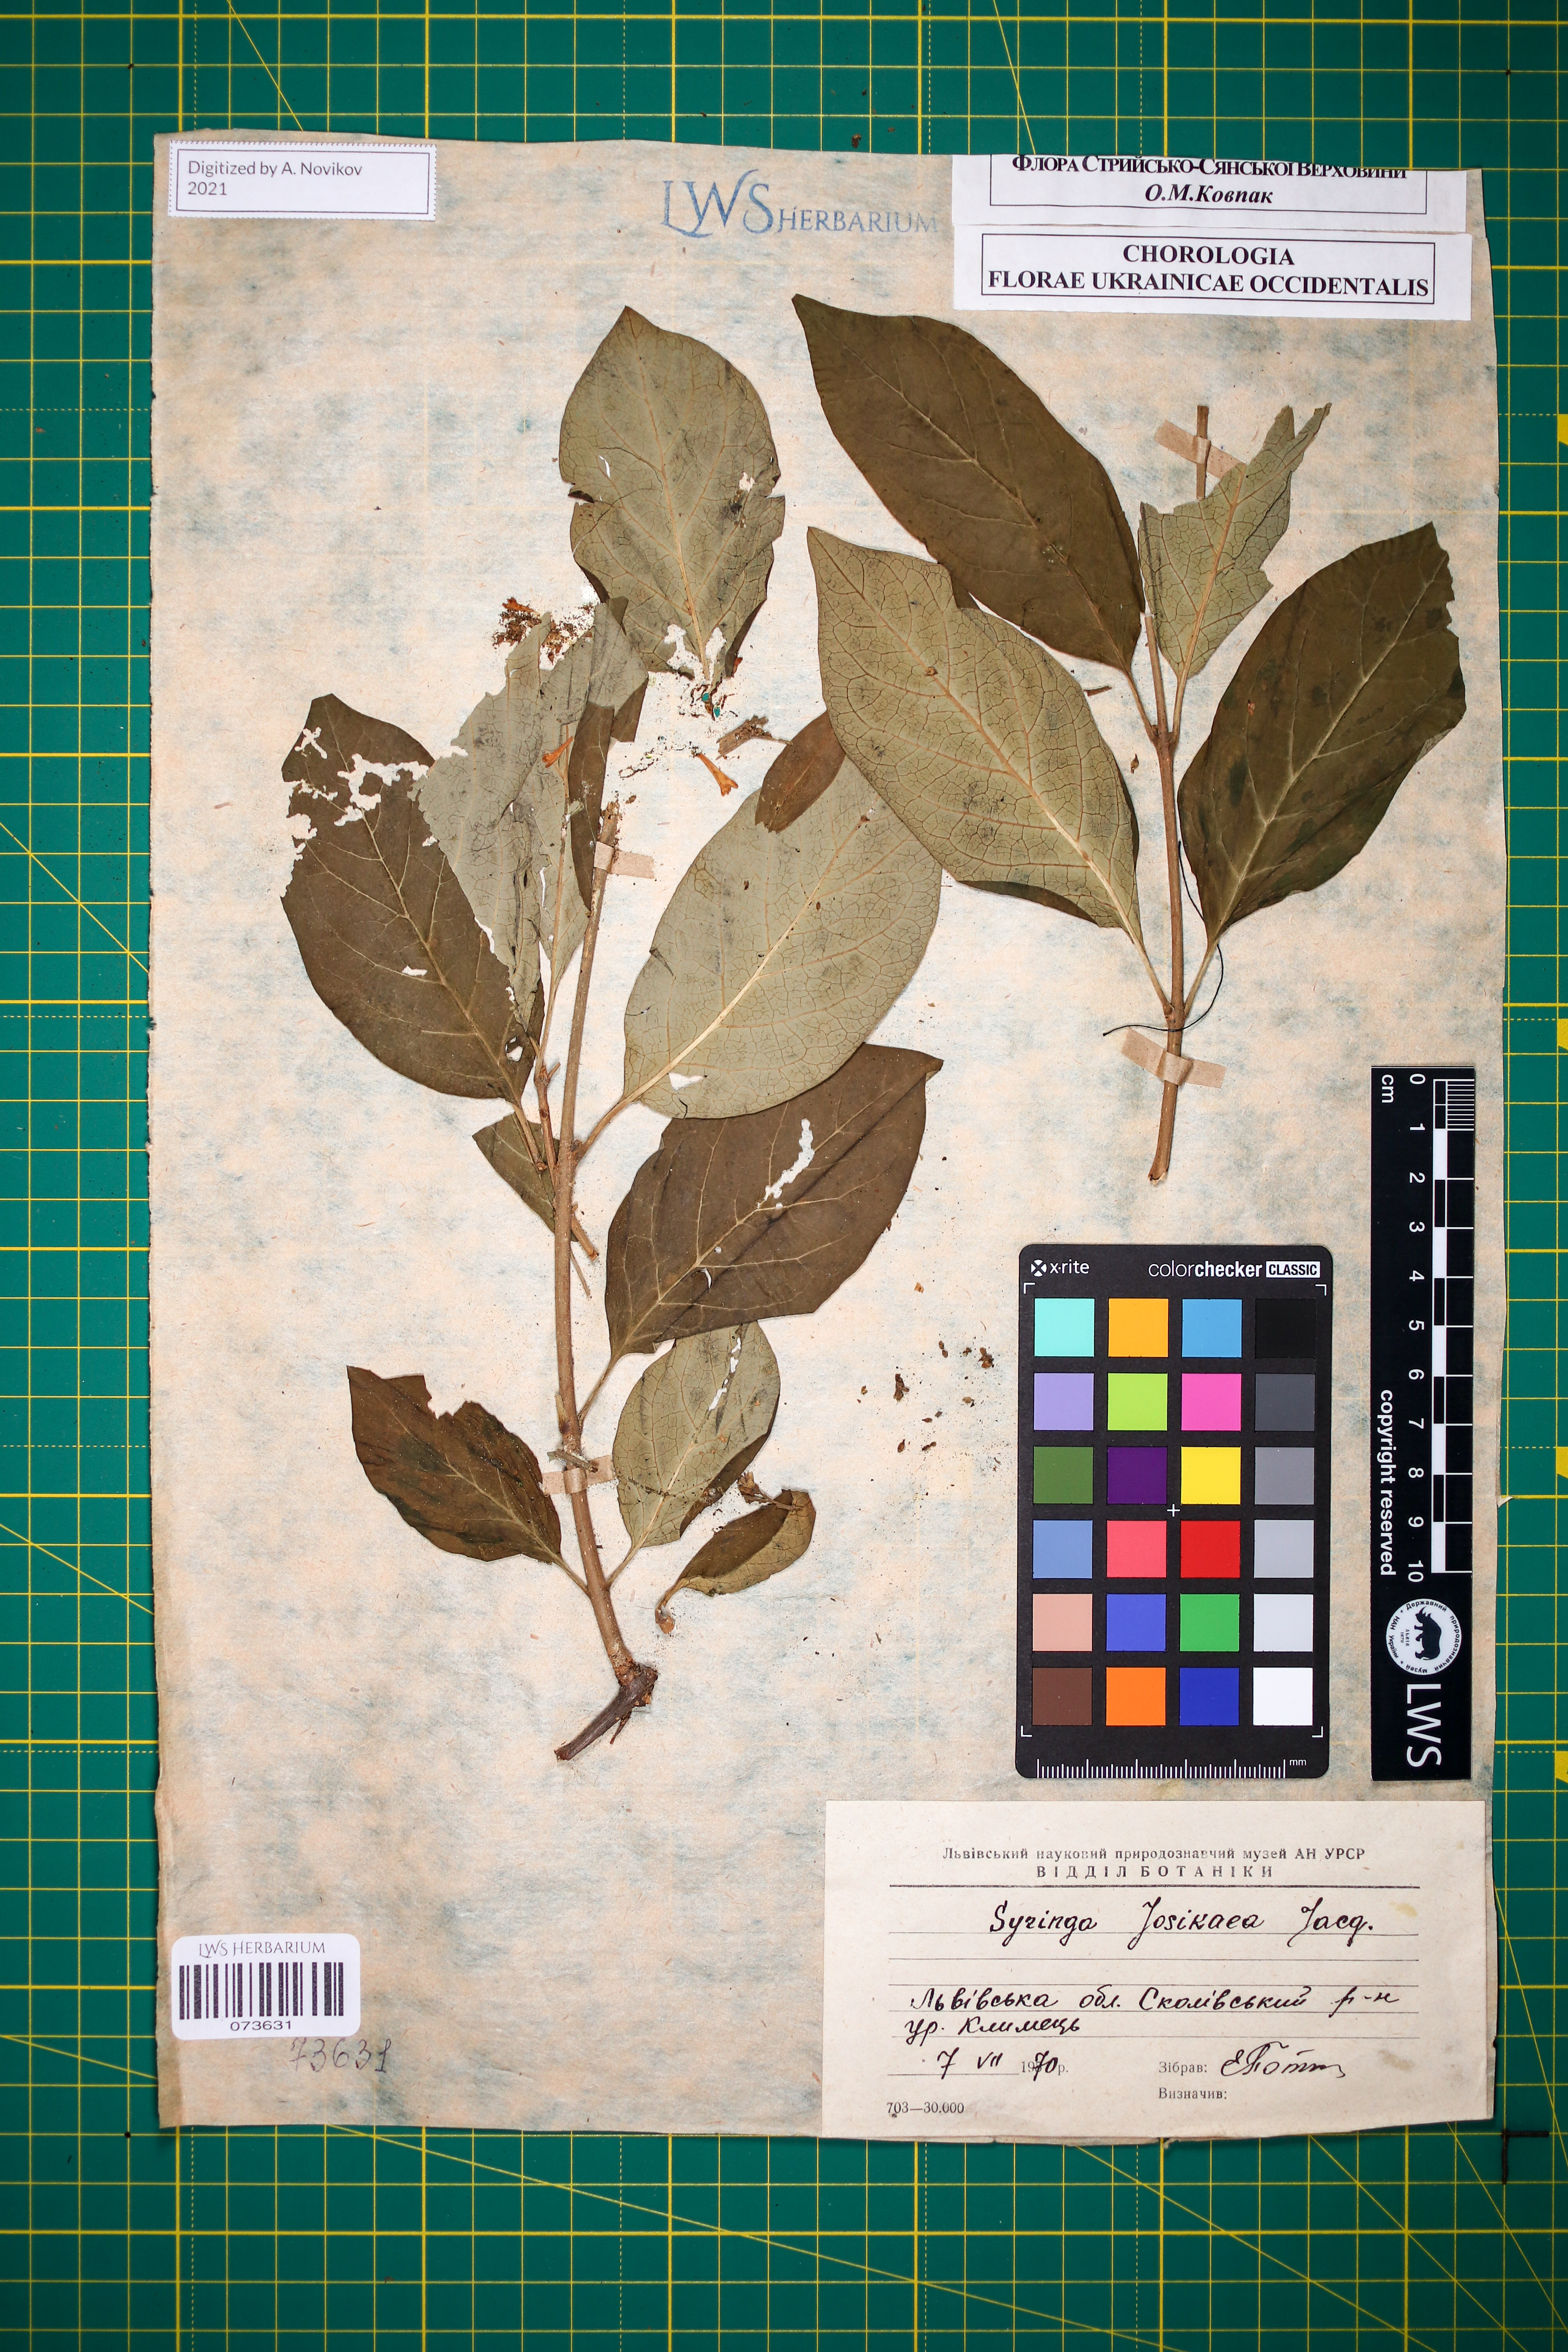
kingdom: Plantae
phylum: Tracheophyta
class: Magnoliopsida
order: Lamiales
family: Oleaceae
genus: Syringa
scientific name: Syringa josikaea
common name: Hungarian lilac
